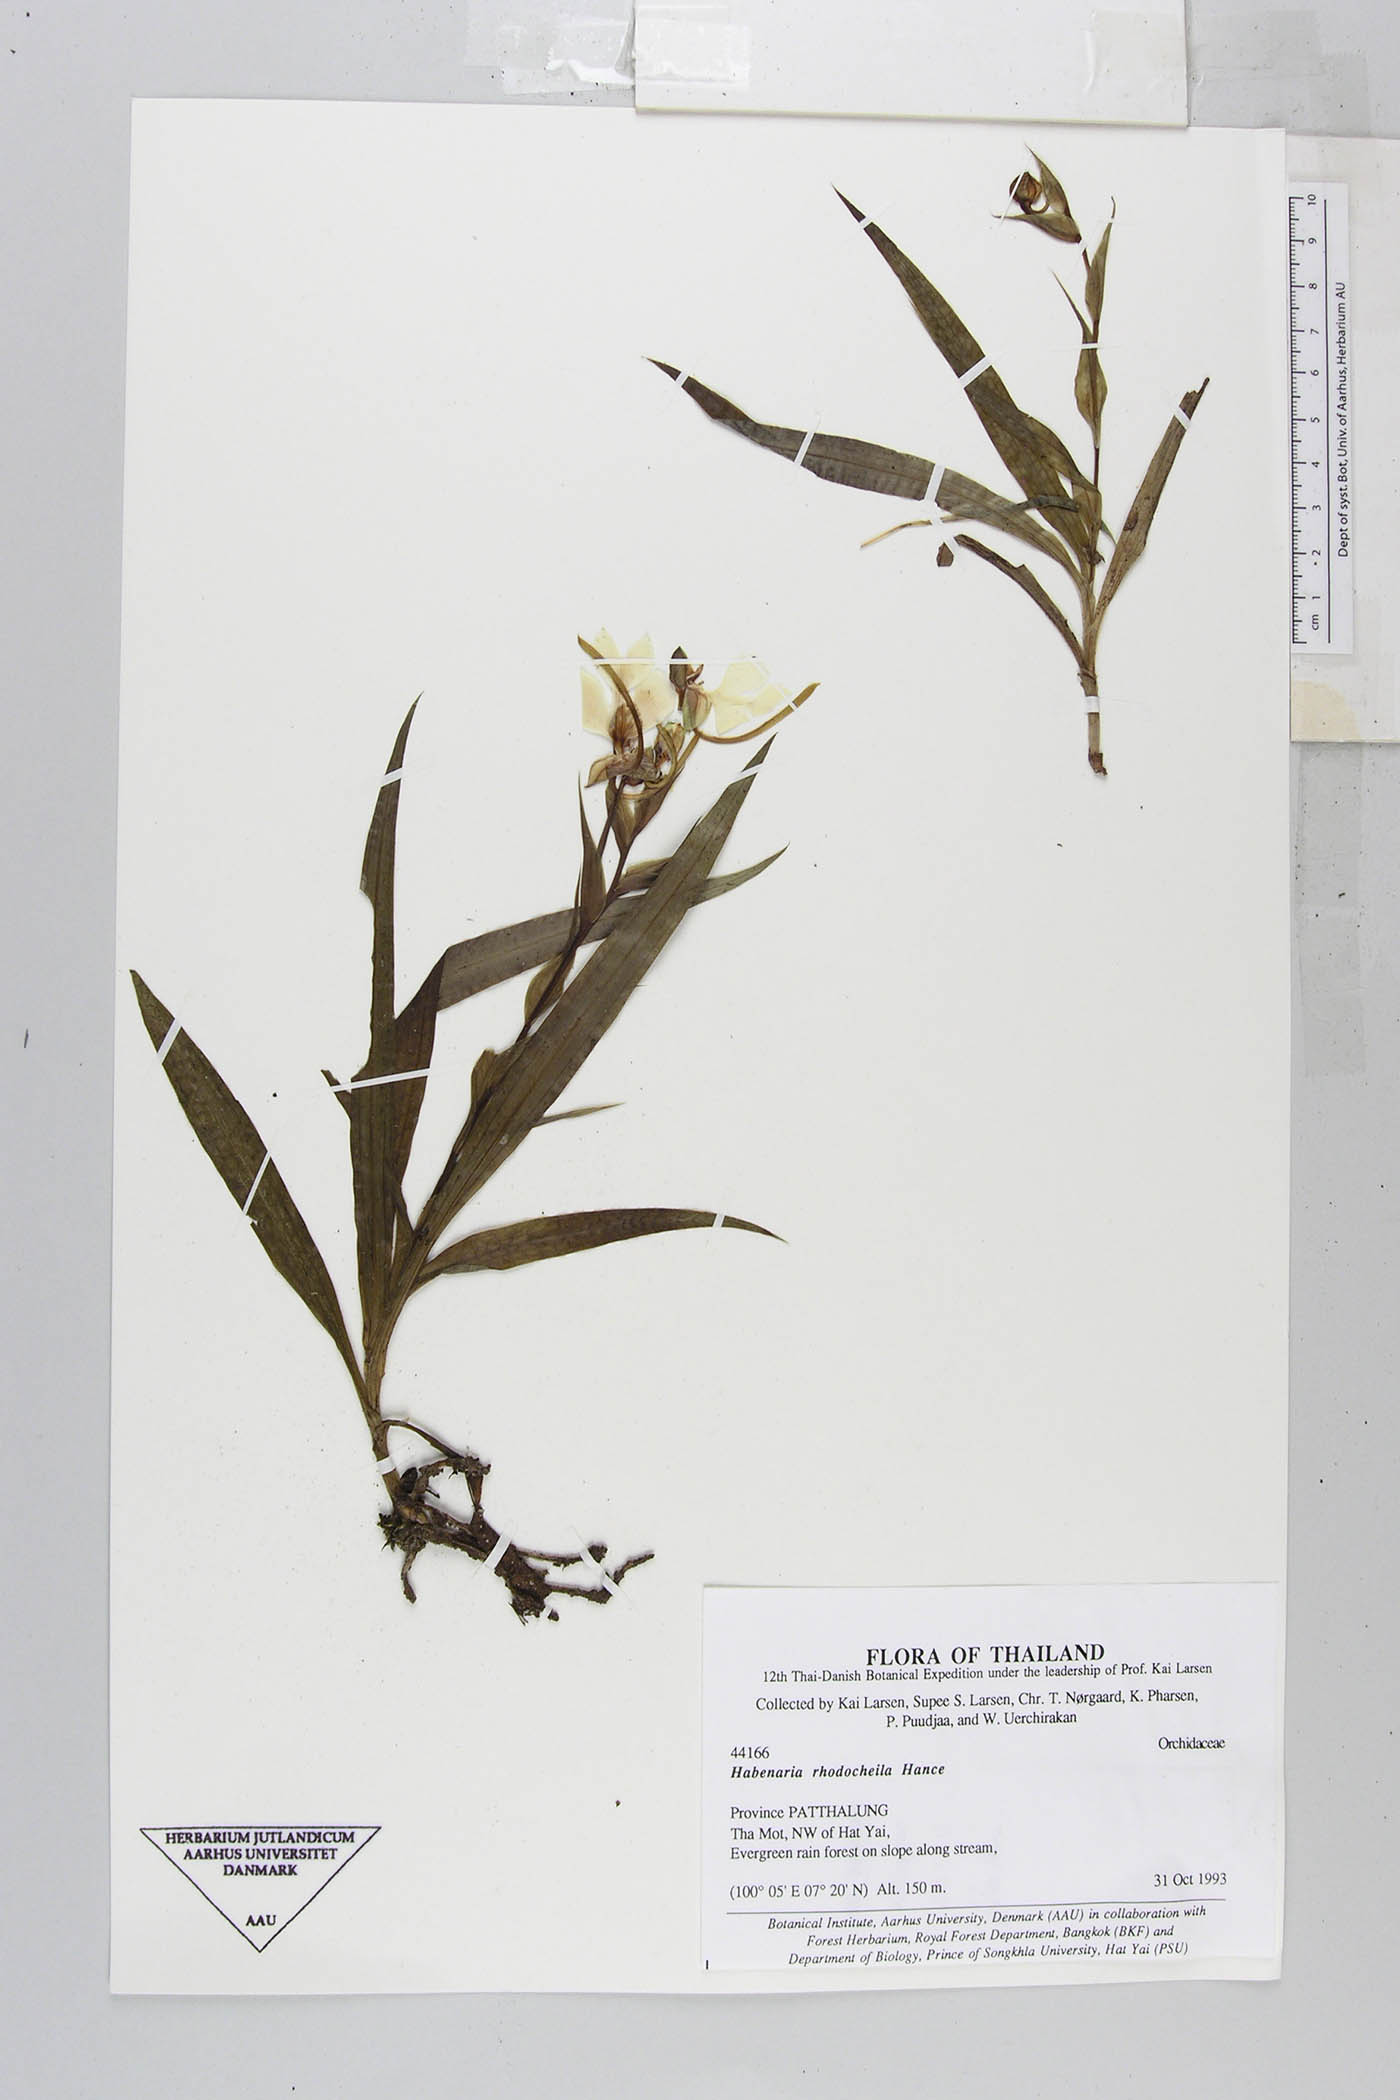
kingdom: Plantae
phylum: Tracheophyta
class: Liliopsida
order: Asparagales
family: Orchidaceae
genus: Habenaria
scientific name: Habenaria rhodocheila
